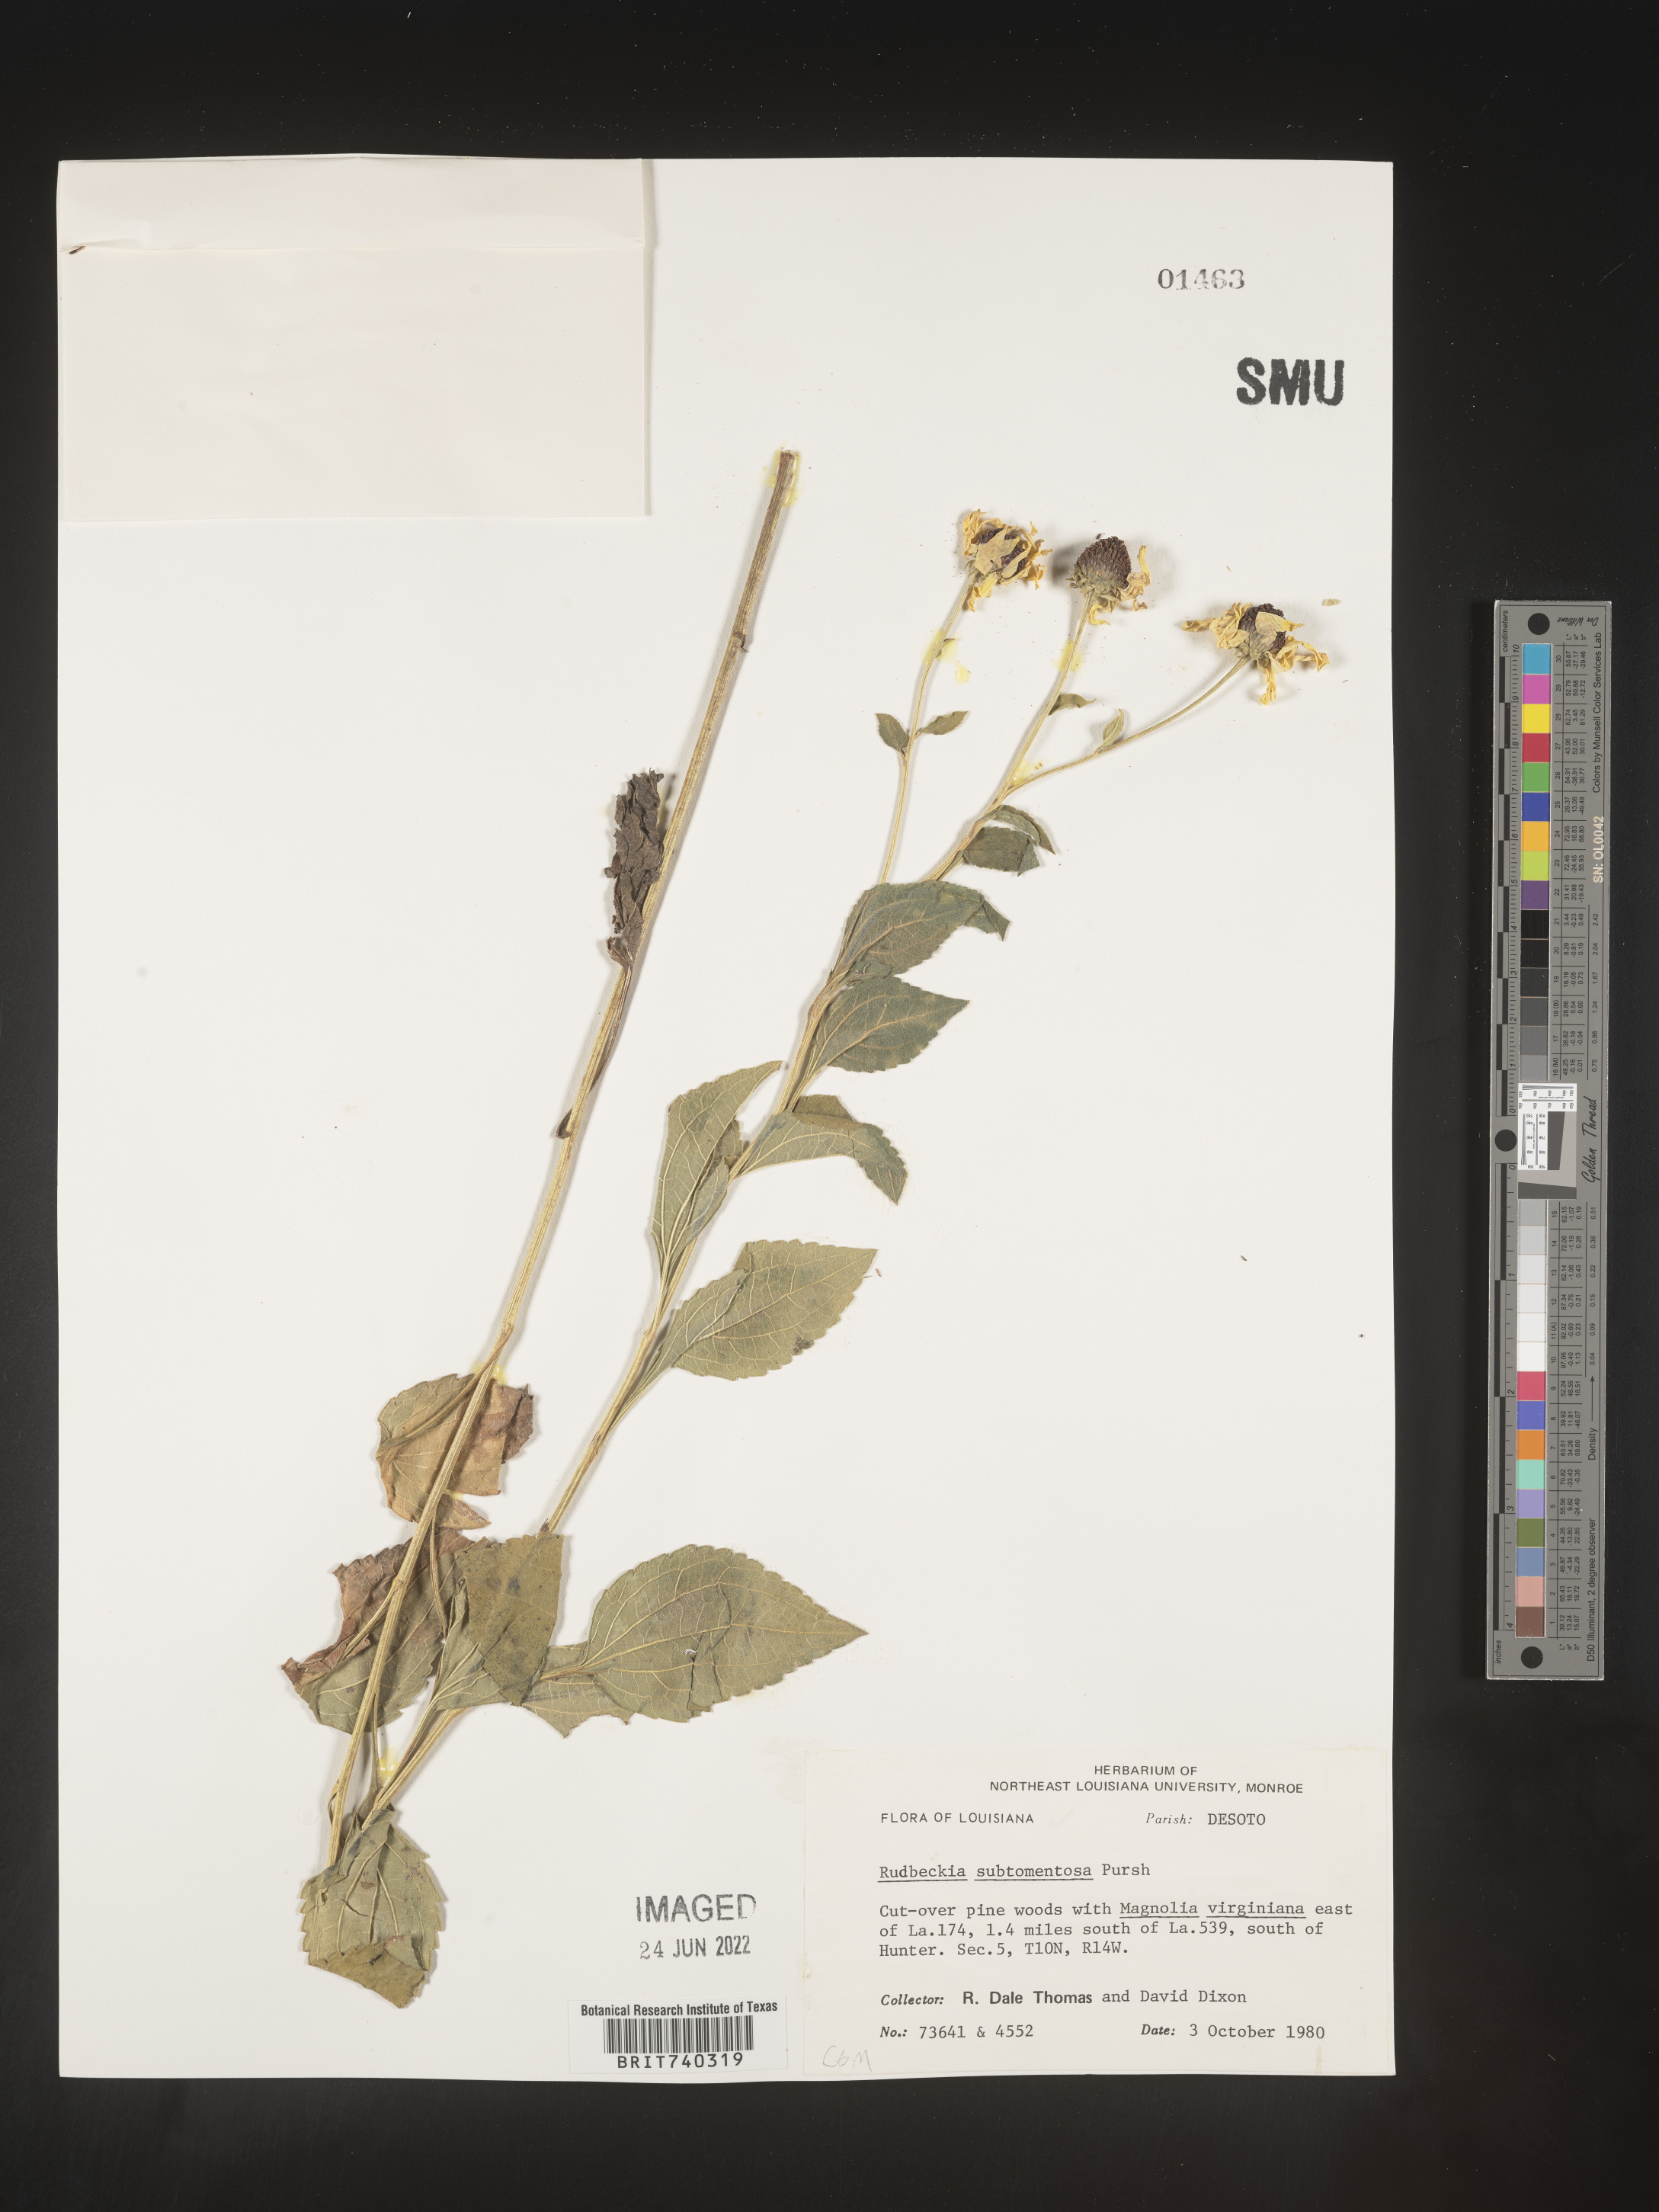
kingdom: Plantae
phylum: Tracheophyta
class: Magnoliopsida
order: Asterales
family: Asteraceae
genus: Rudbeckia
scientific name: Rudbeckia subtomentosa
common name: Sweet coneflower
